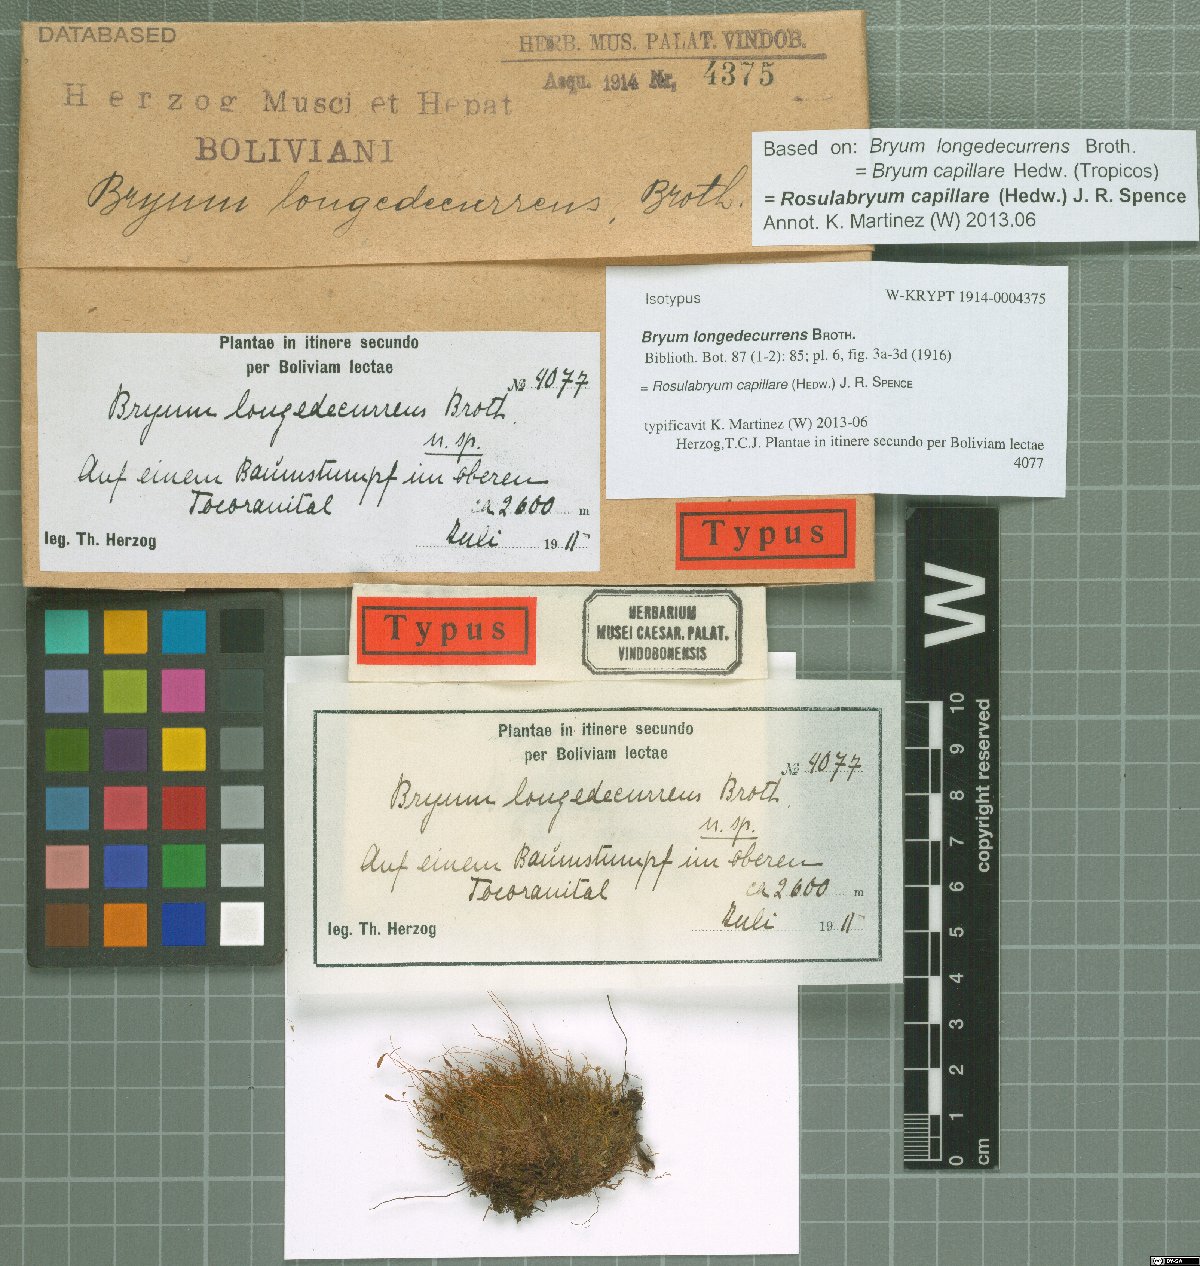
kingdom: Plantae
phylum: Bryophyta
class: Bryopsida
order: Bryales
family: Bryaceae
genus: Rosulabryum
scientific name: Rosulabryum capillare
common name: Capillary thread-moss
